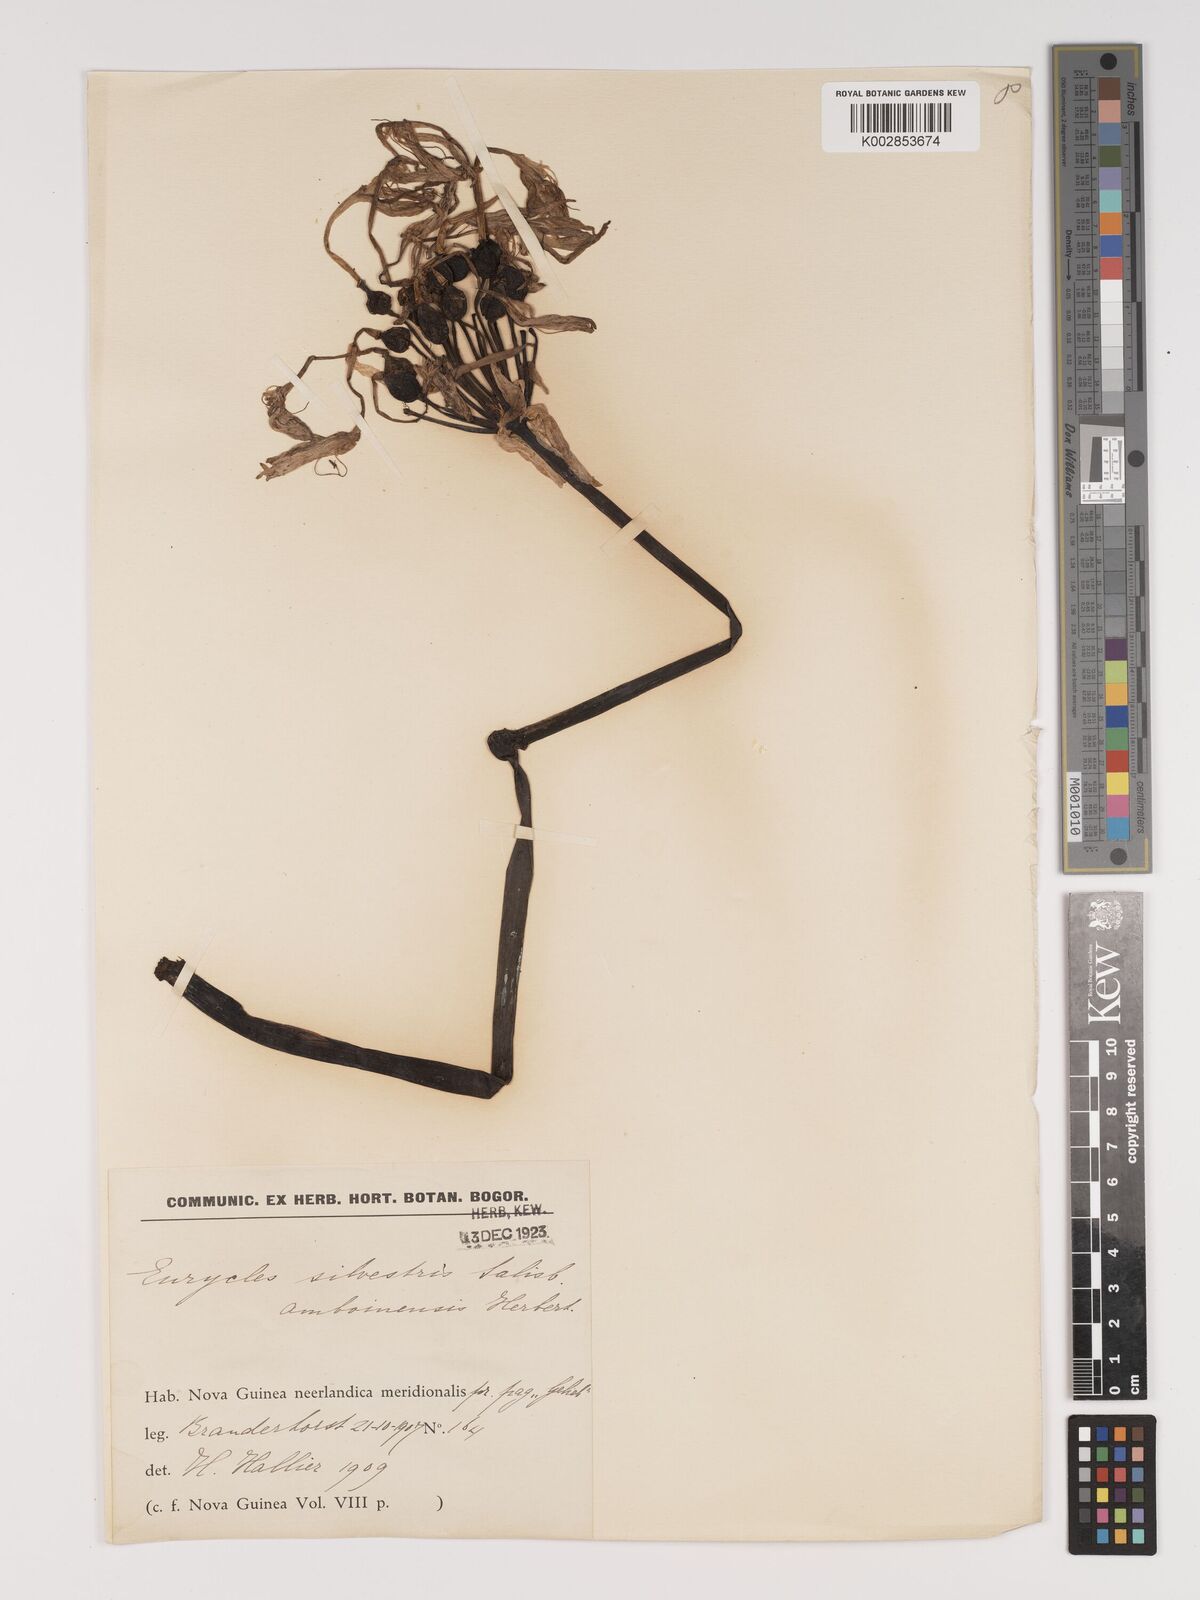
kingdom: Plantae
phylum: Tracheophyta
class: Liliopsida
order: Asparagales
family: Amaryllidaceae
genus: Proiphys
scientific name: Proiphys
